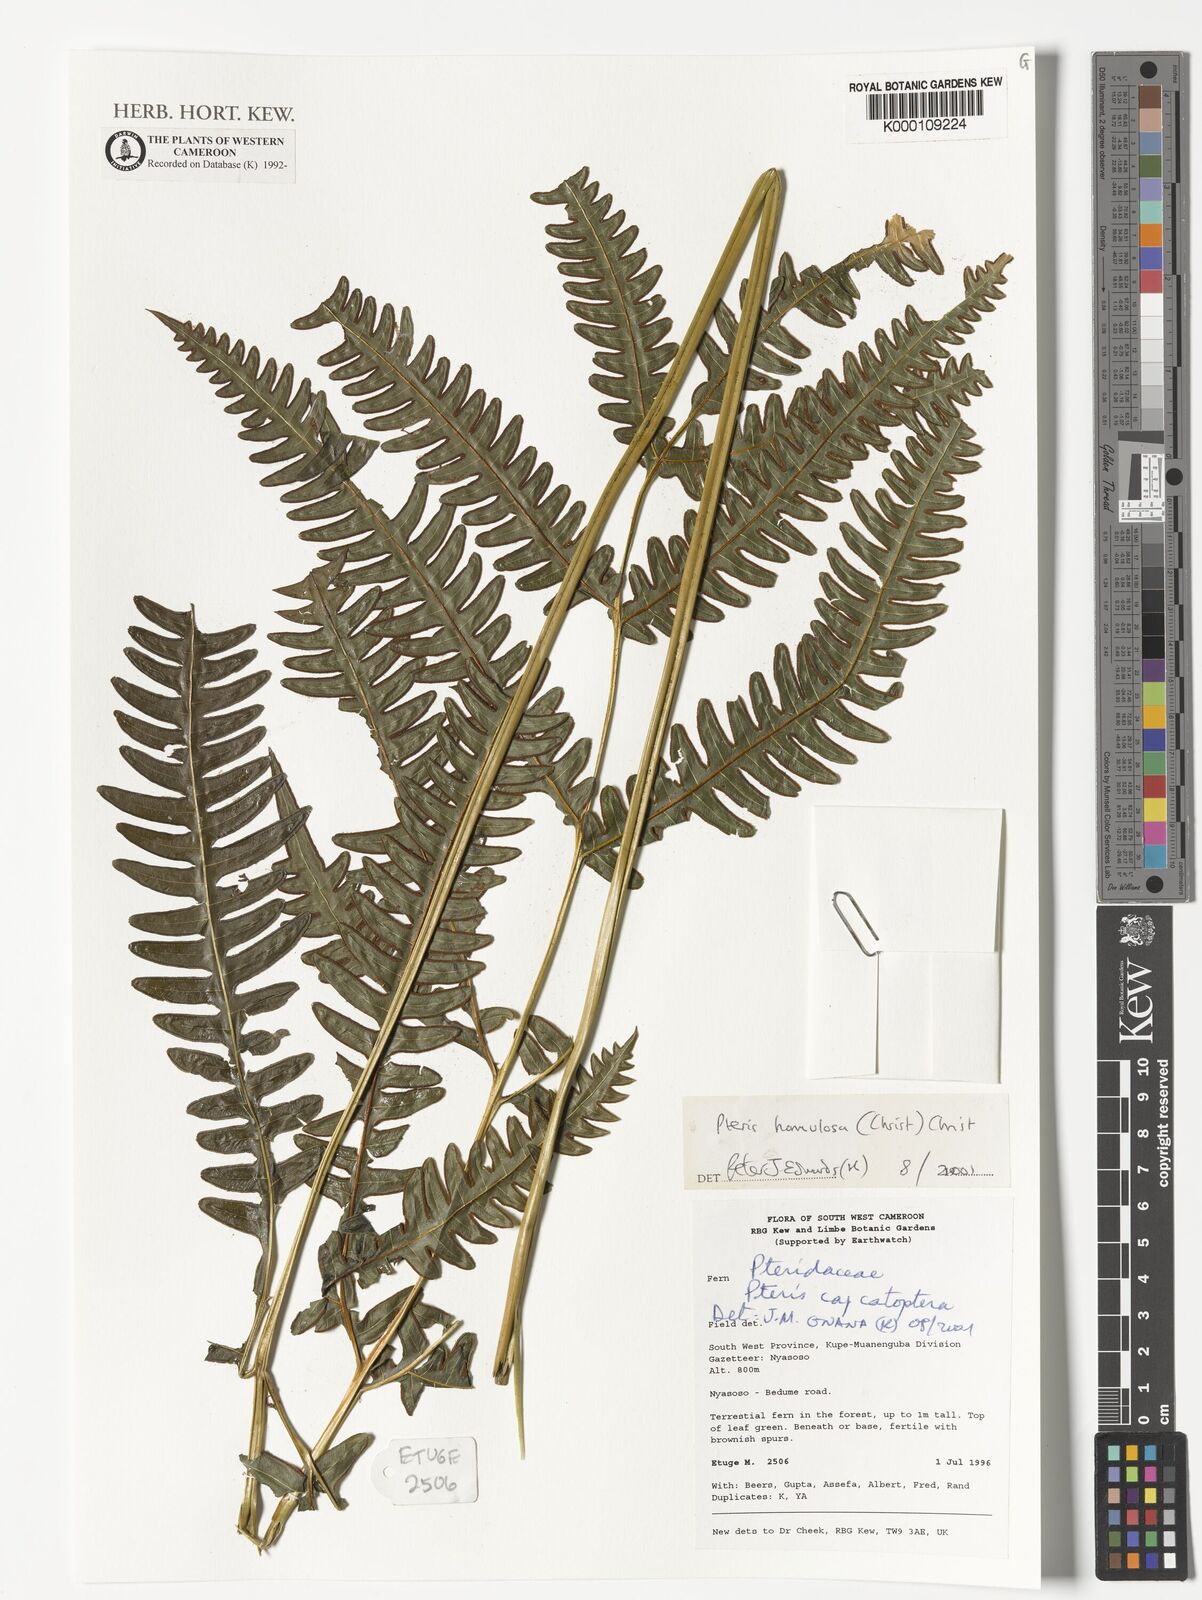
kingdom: Plantae
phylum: Tracheophyta
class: Polypodiopsida
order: Polypodiales
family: Pteridaceae
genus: Pteris
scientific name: Pteris hamulosa
